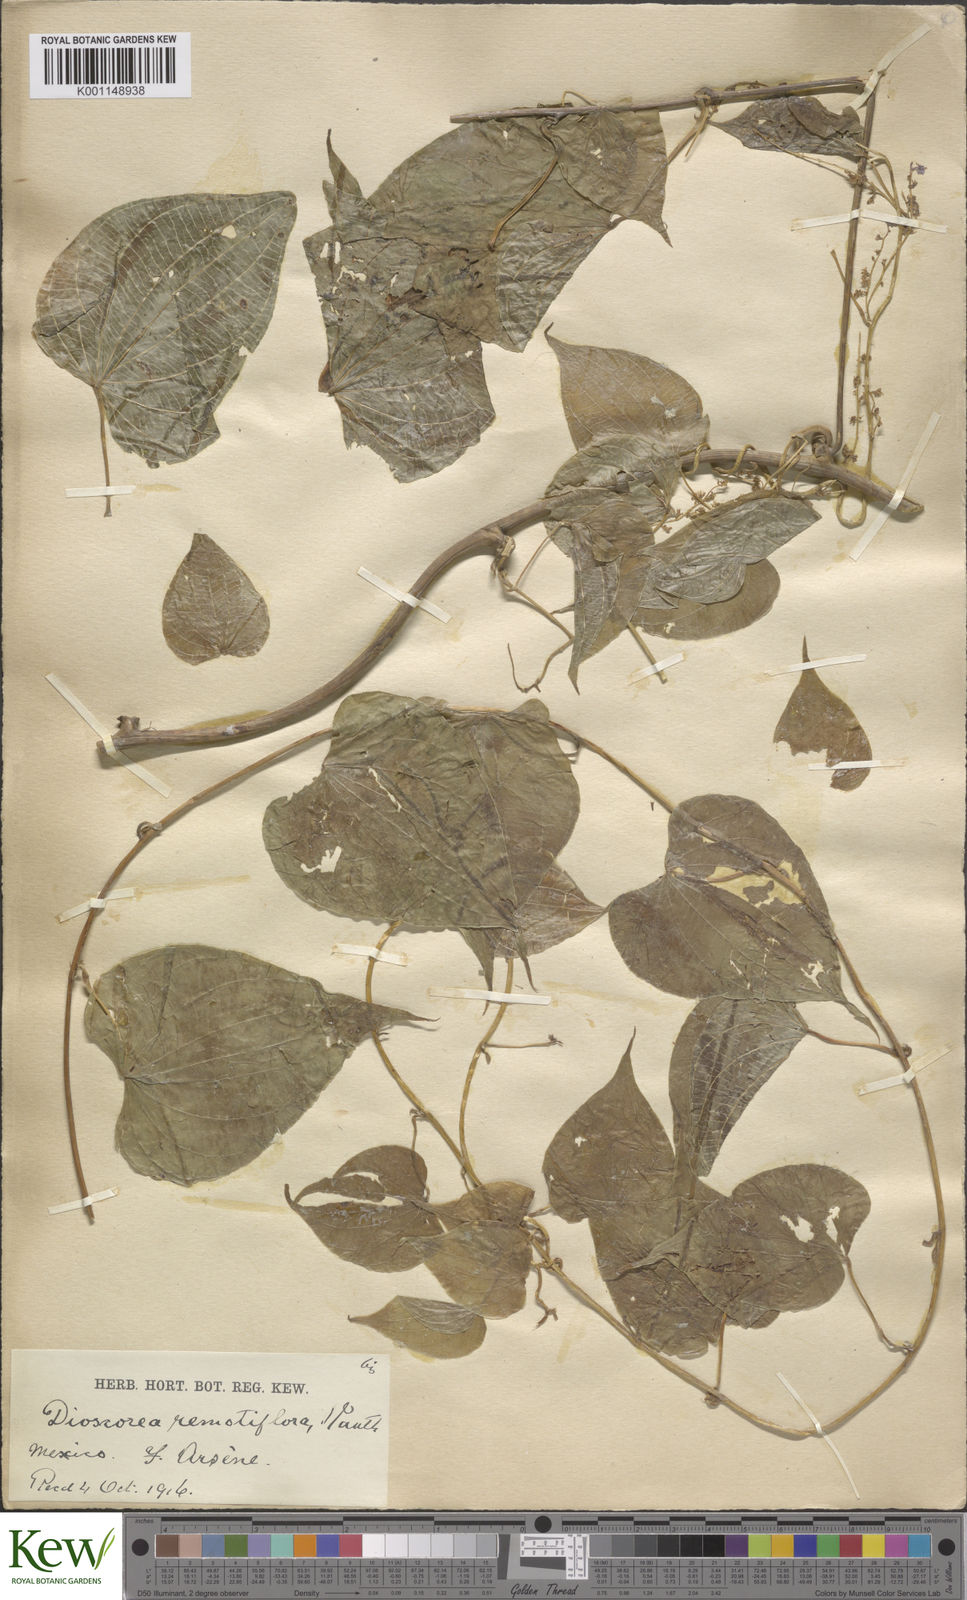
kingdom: Plantae
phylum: Tracheophyta
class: Liliopsida
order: Dioscoreales
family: Dioscoreaceae
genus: Dioscorea
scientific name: Dioscorea remotiflora
